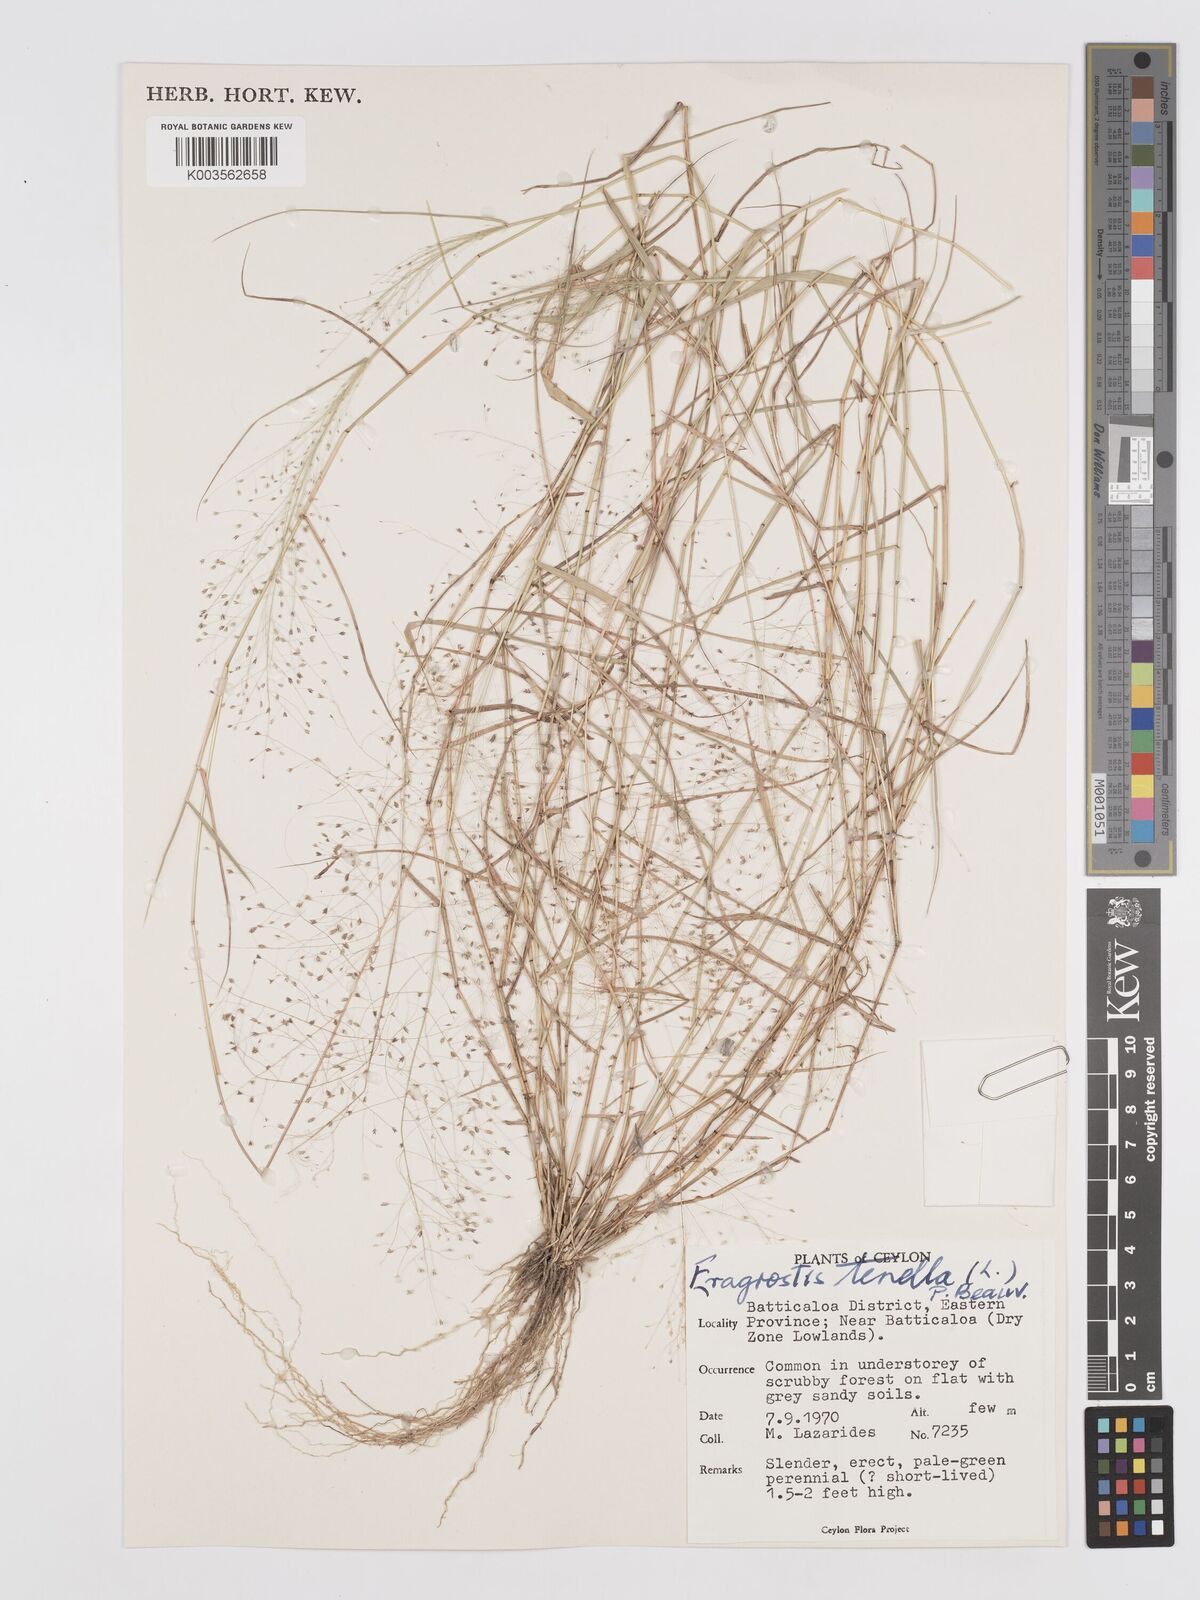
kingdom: Plantae
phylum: Tracheophyta
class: Liliopsida
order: Poales
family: Poaceae
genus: Eragrostis
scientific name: Eragrostis tenella
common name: Japanese lovegrass
